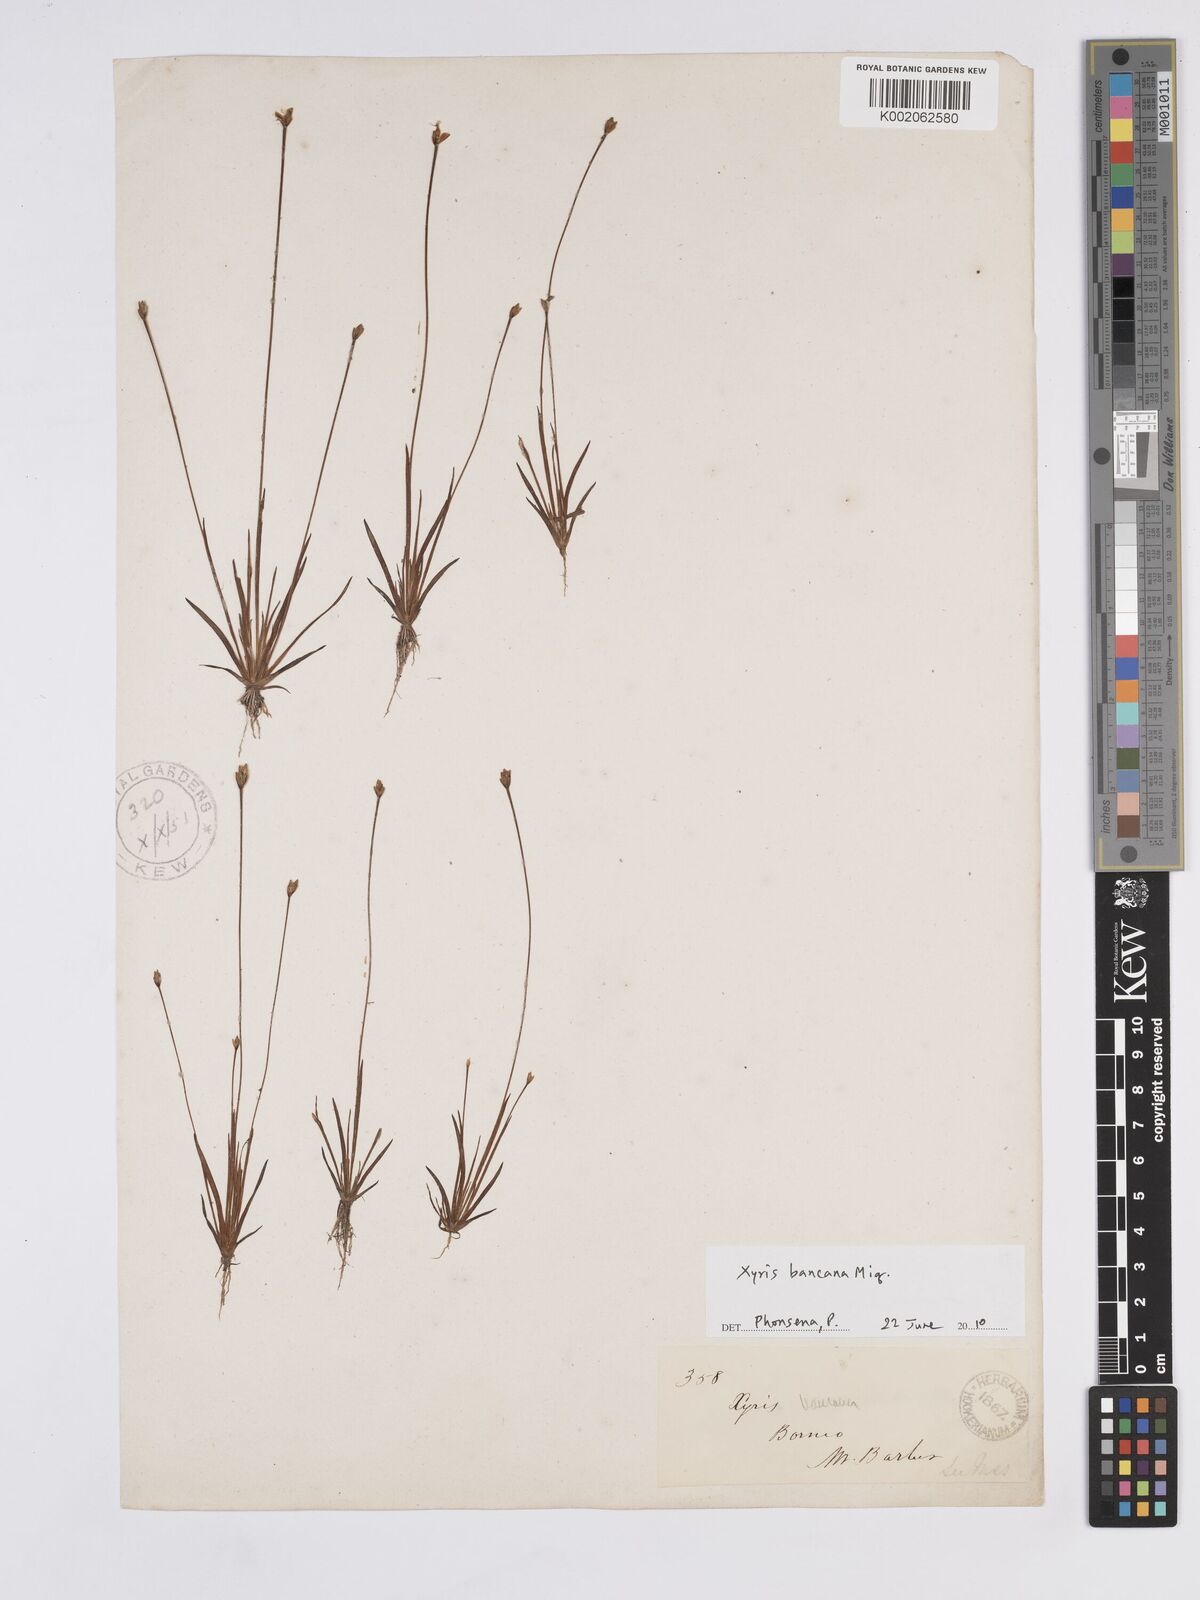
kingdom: Plantae
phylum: Tracheophyta
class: Liliopsida
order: Poales
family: Xyridaceae
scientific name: Xyridaceae
